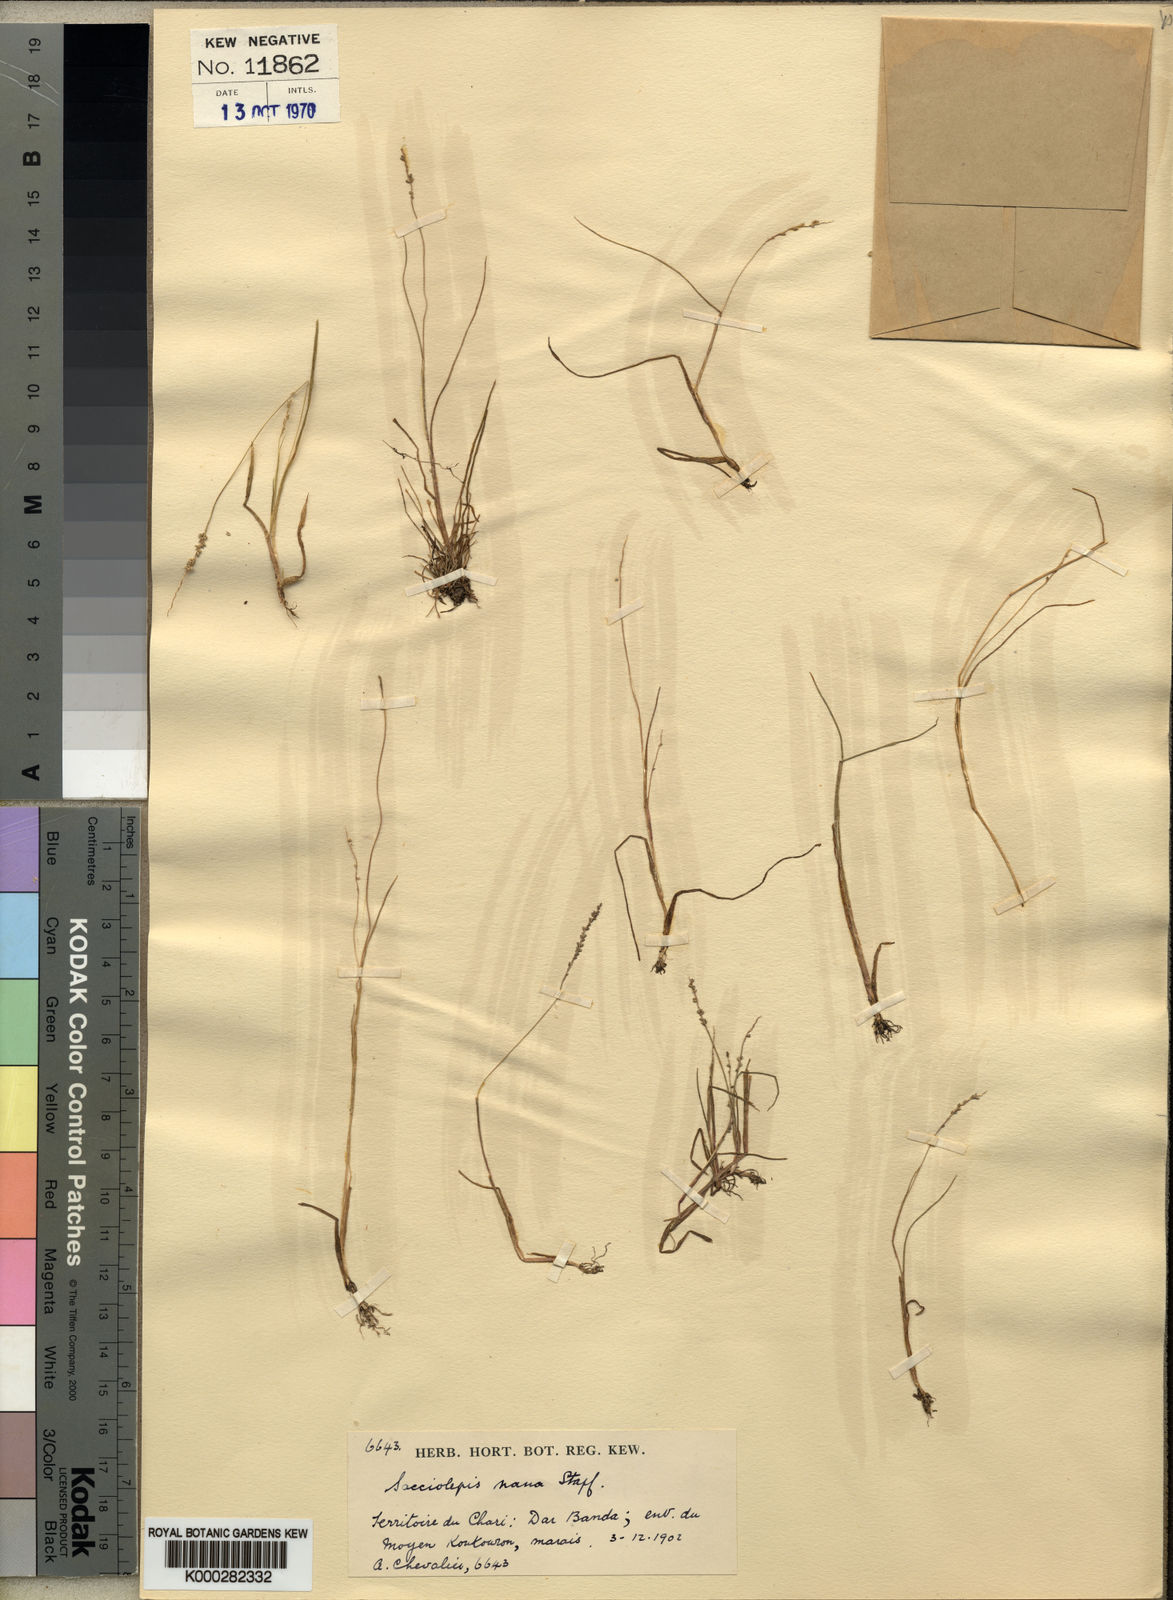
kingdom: Plantae
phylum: Tracheophyta
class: Liliopsida
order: Poales
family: Poaceae
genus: Sacciolepis
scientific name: Sacciolepis micrococca
